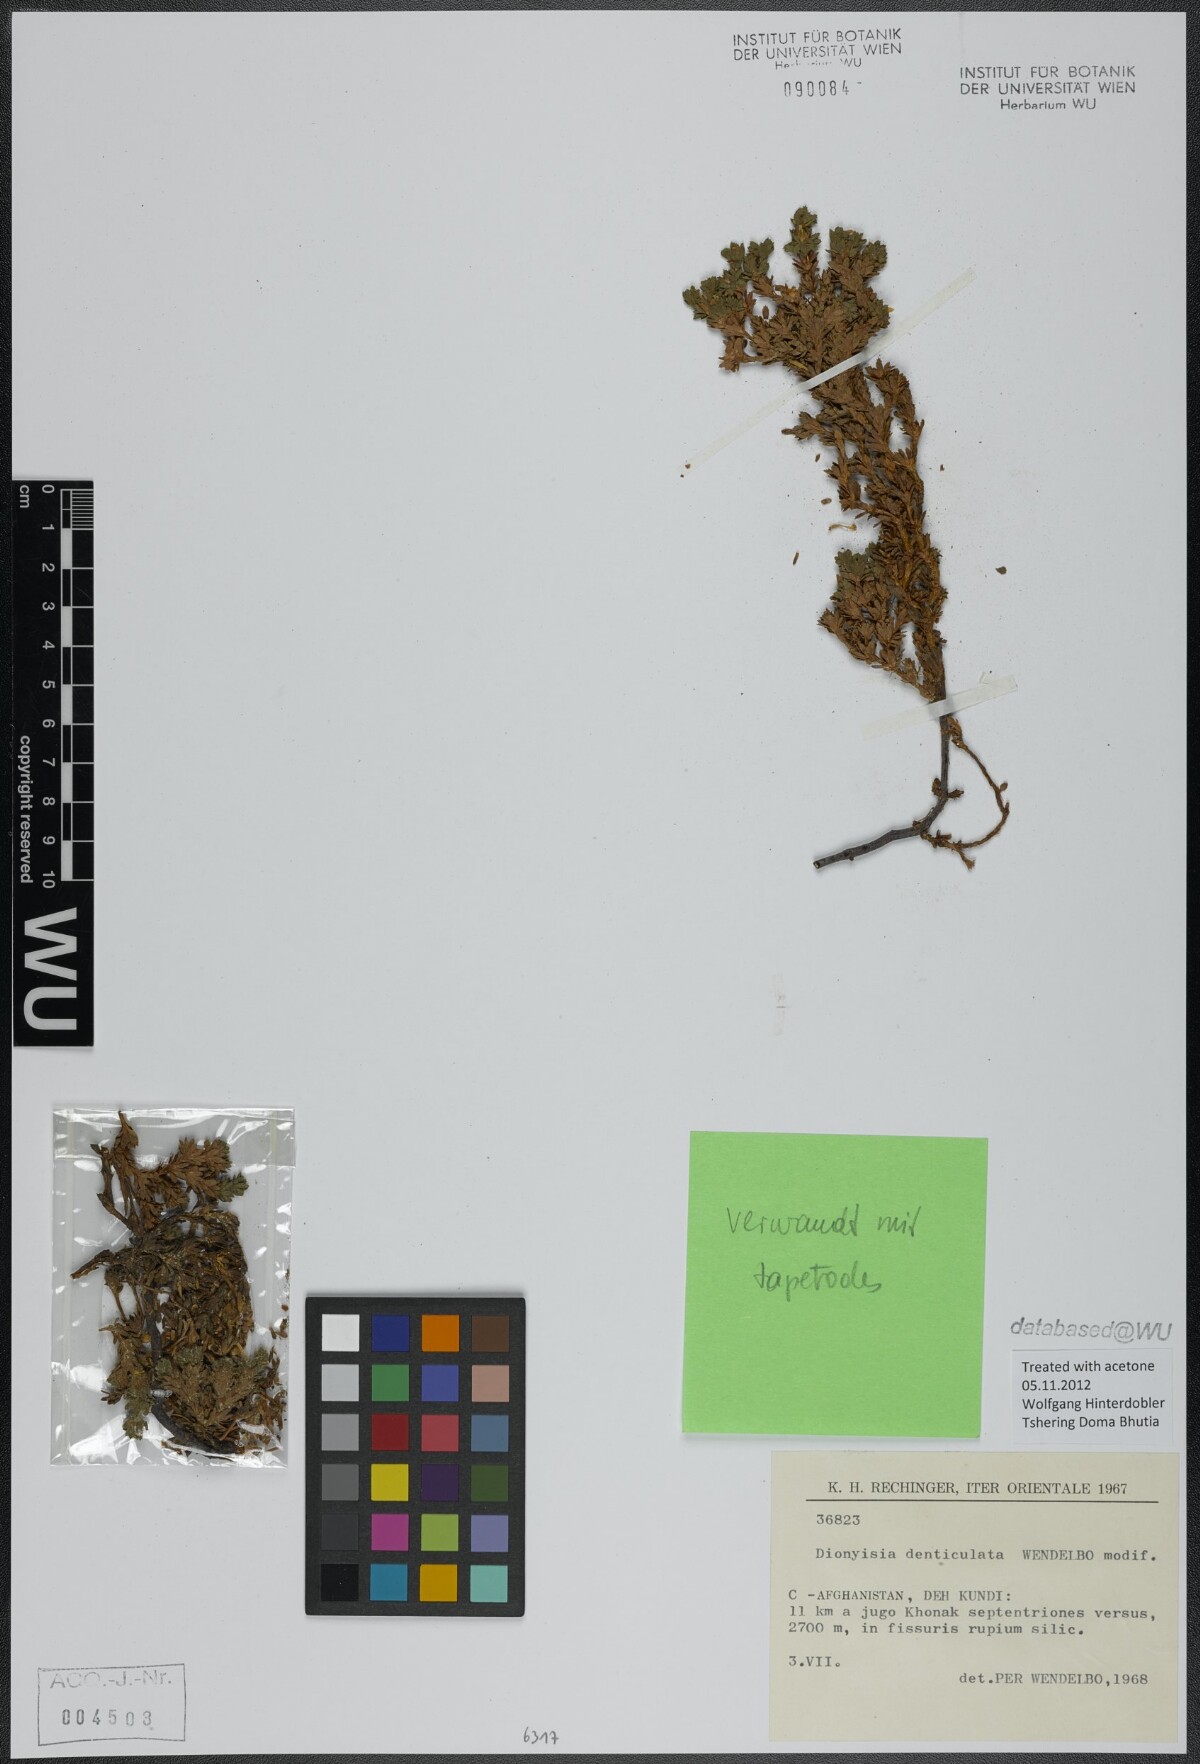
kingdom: Plantae
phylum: Tracheophyta
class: Magnoliopsida
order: Ericales
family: Primulaceae
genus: Dionysia
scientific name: Dionysia denticulata
